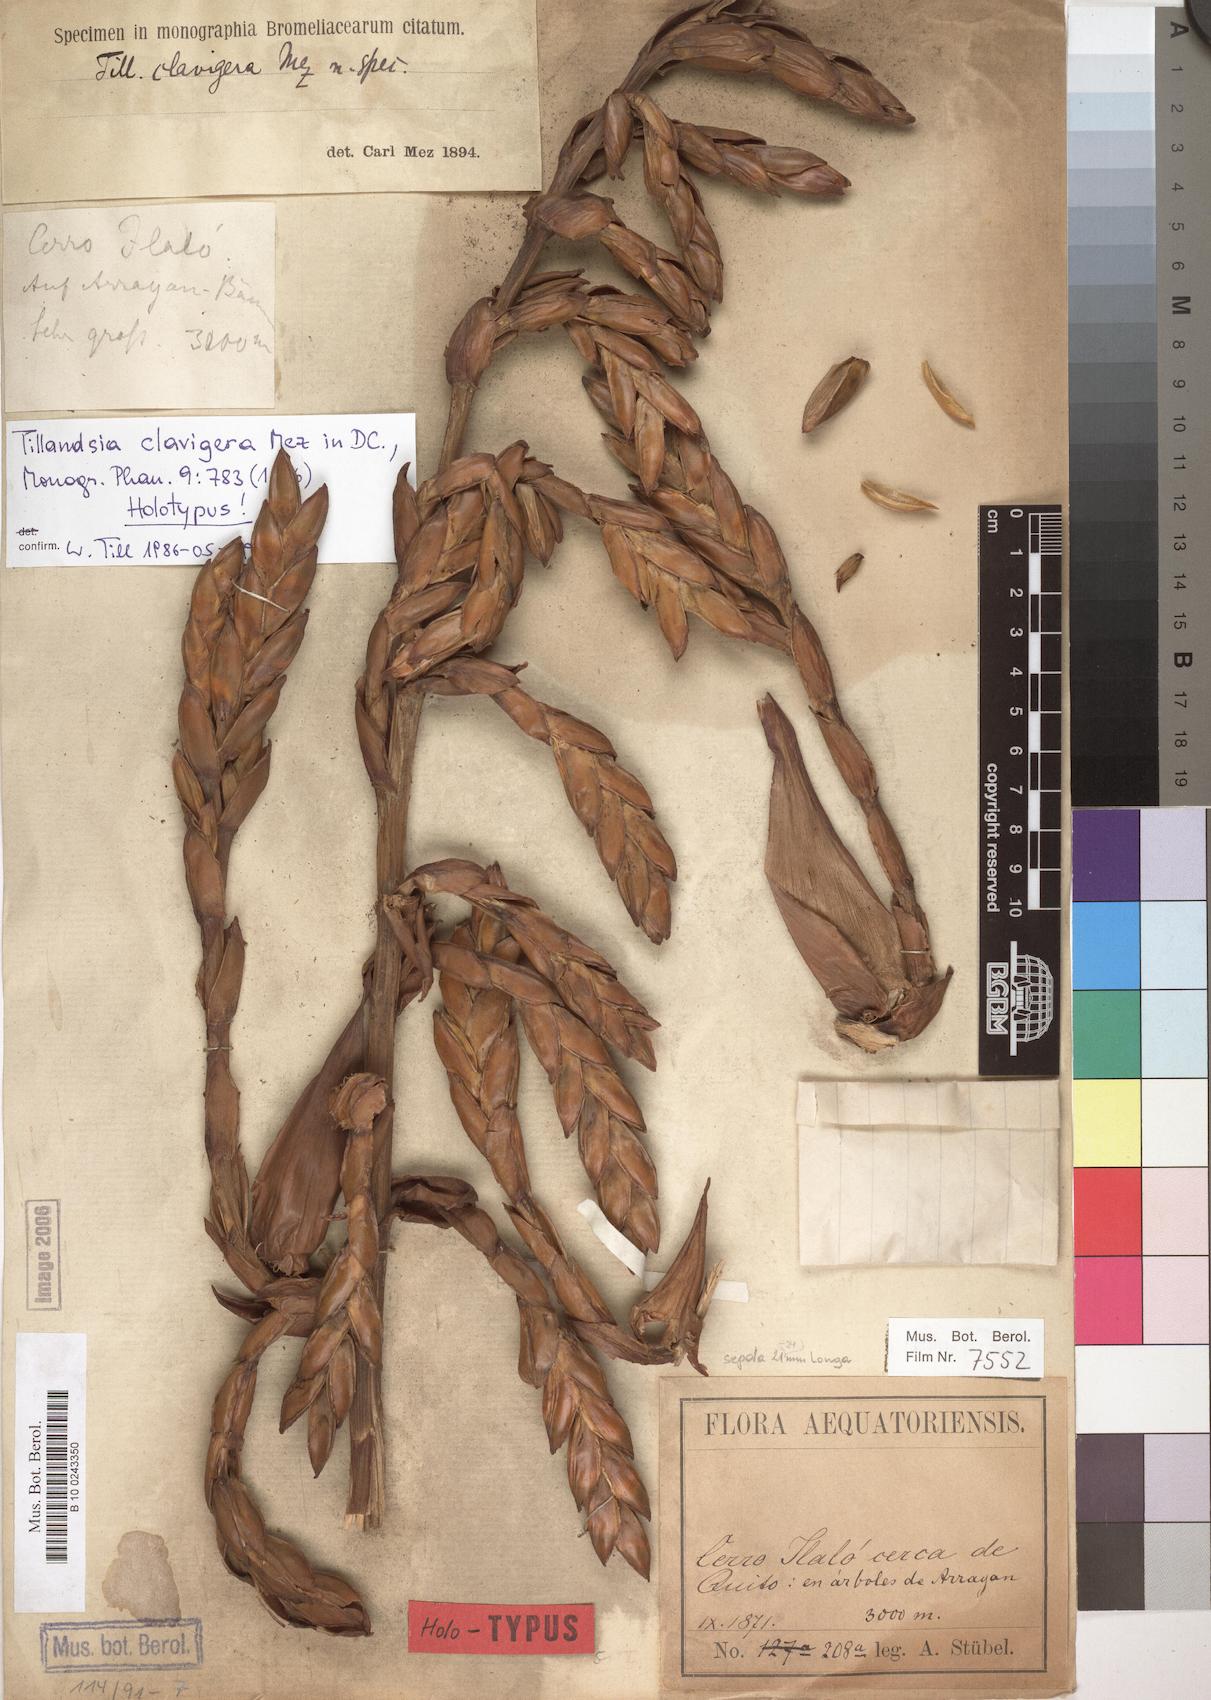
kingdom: Plantae
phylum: Tracheophyta
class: Liliopsida
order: Poales
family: Bromeliaceae
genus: Tillandsia
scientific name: Tillandsia clavigera
